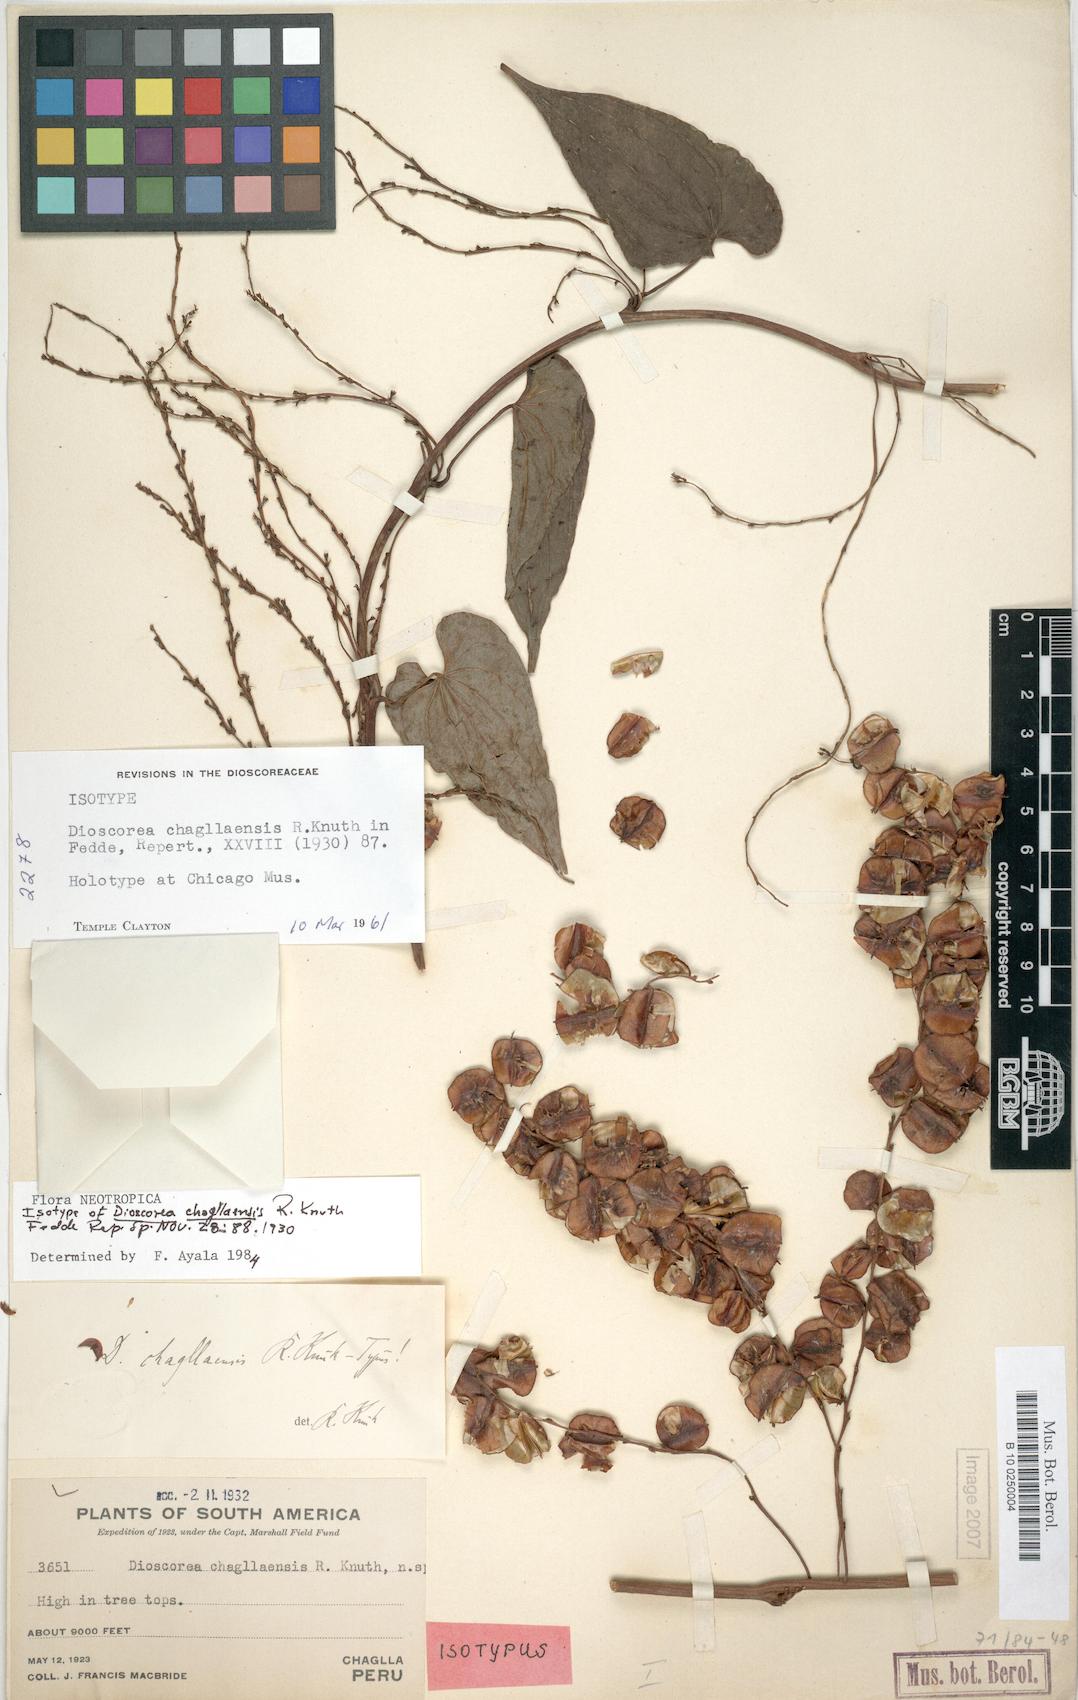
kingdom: Plantae
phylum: Tracheophyta
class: Liliopsida
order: Dioscoreales
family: Dioscoreaceae
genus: Dioscorea
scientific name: Dioscorea chagllaensis
